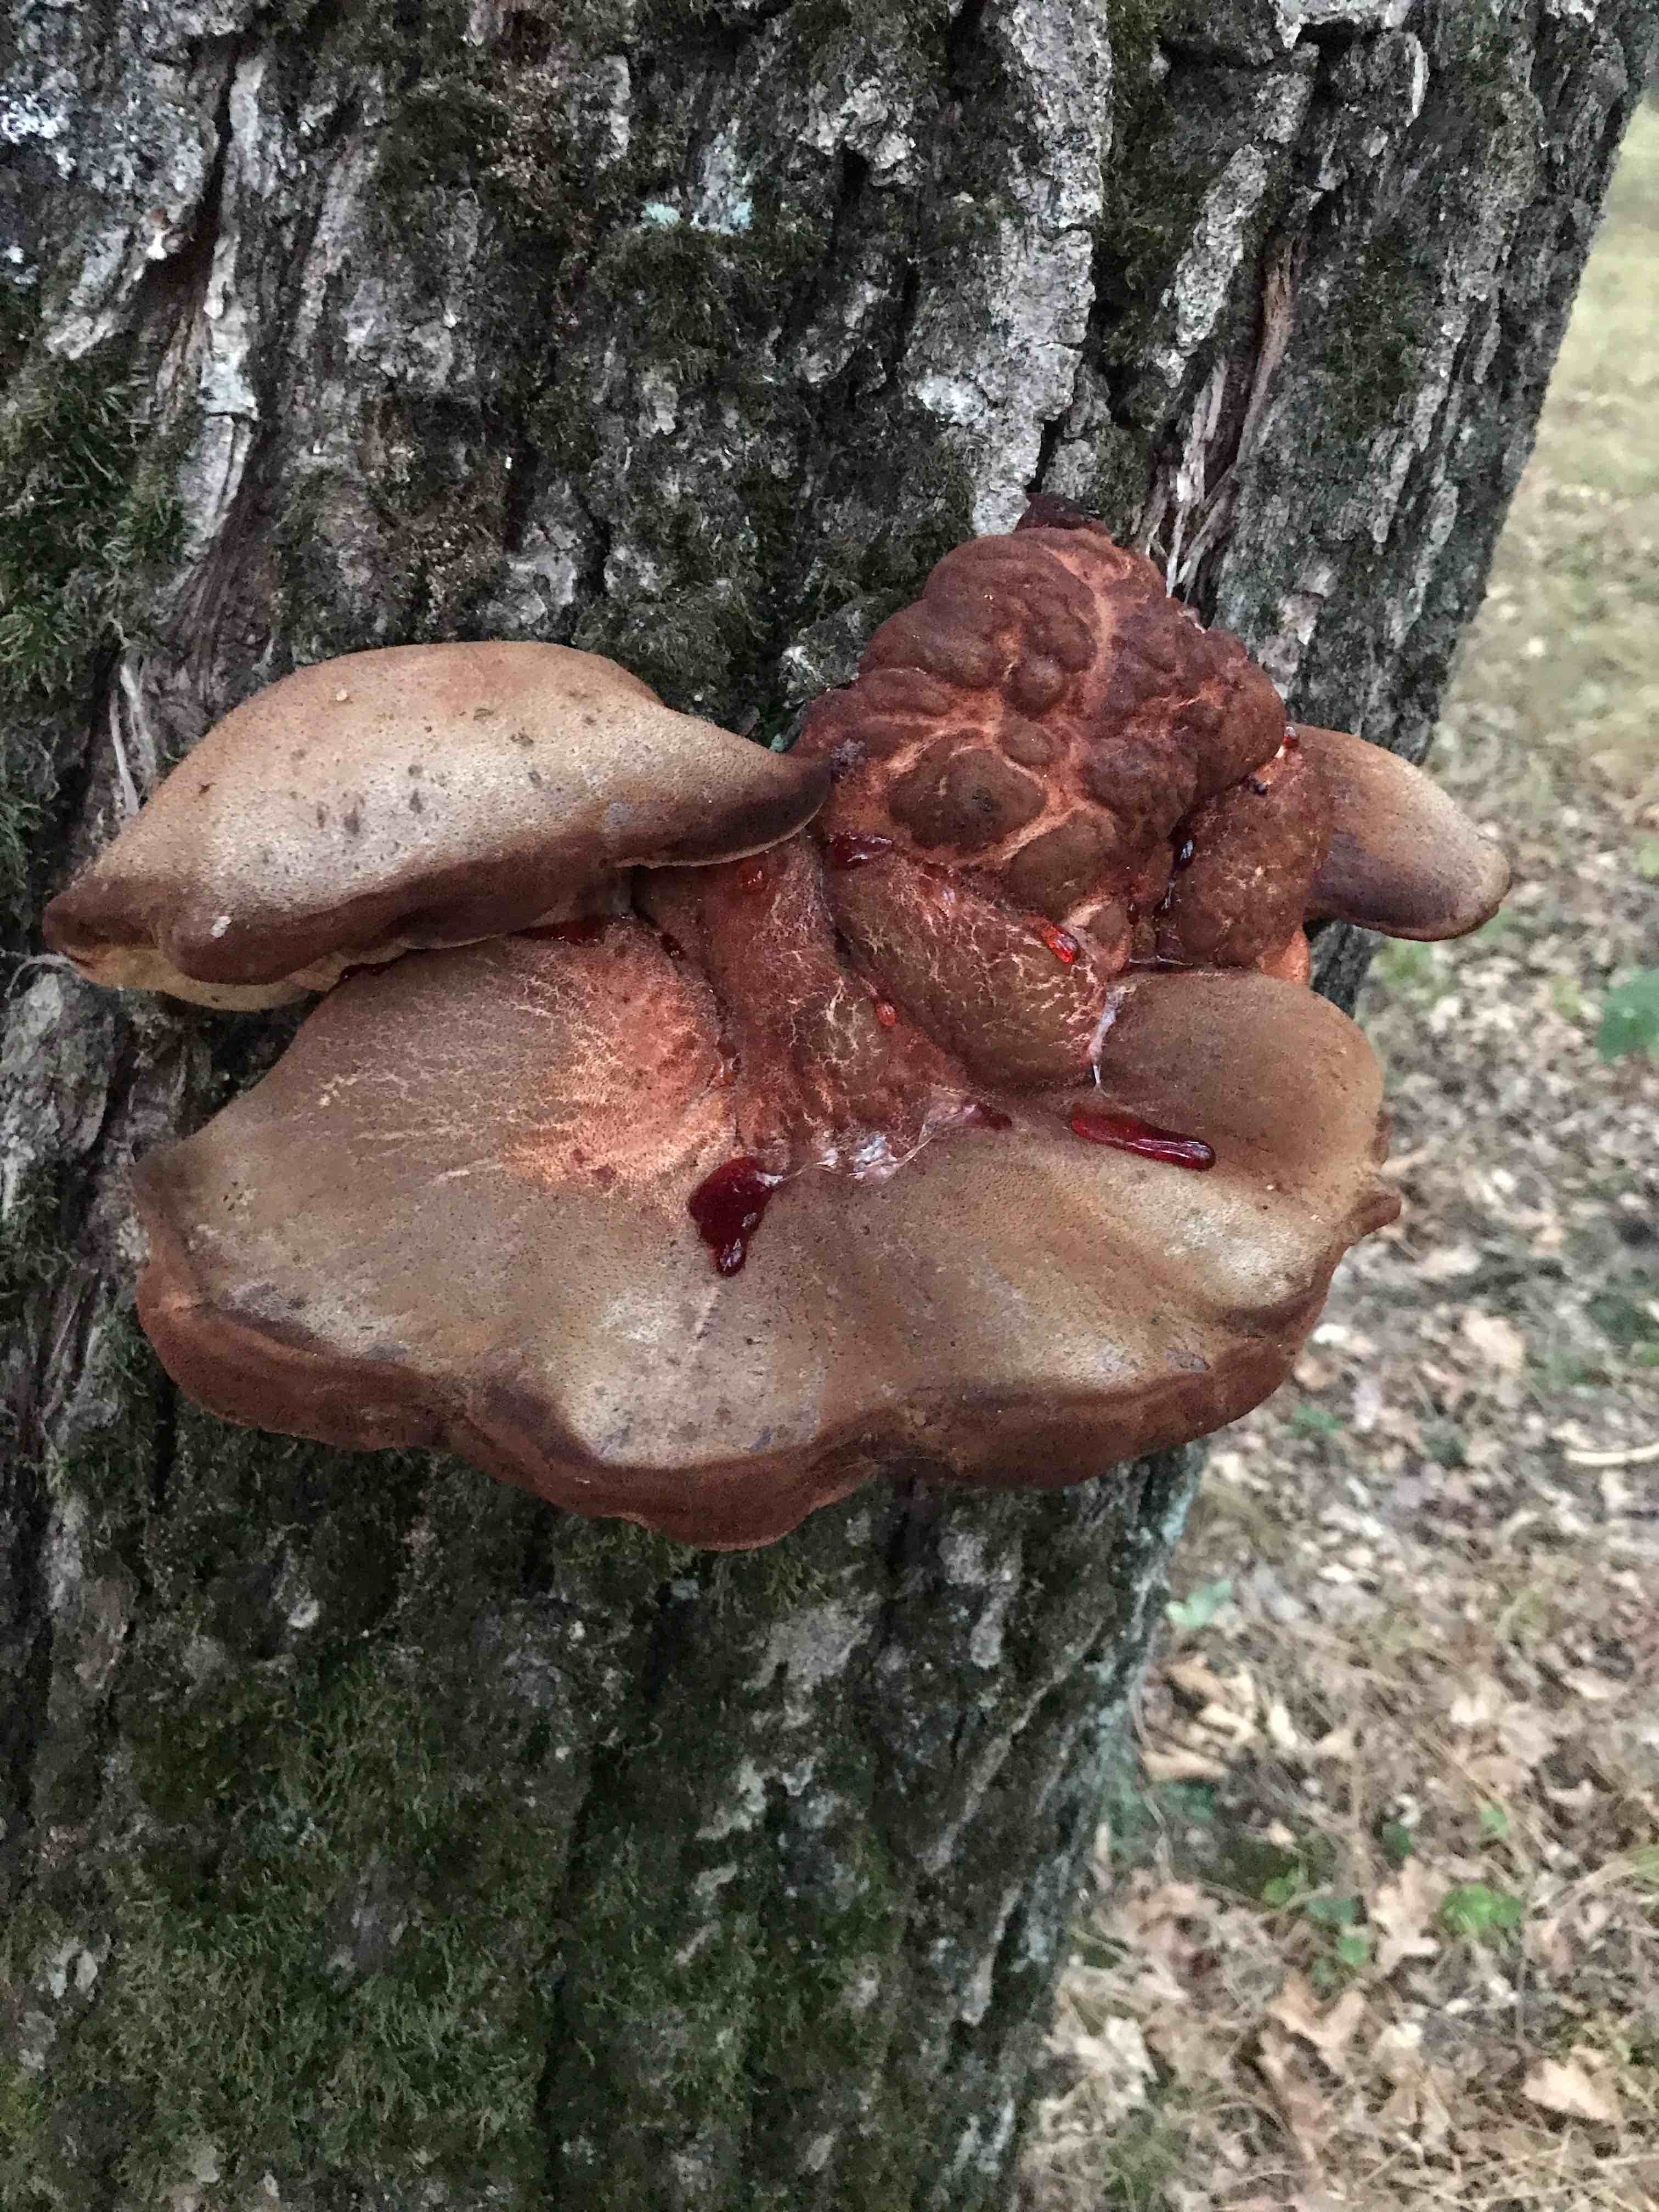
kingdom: Fungi
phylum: Basidiomycota
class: Agaricomycetes
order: Agaricales
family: Fistulinaceae
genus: Fistulina
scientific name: Fistulina hepatica
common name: oksetunge
